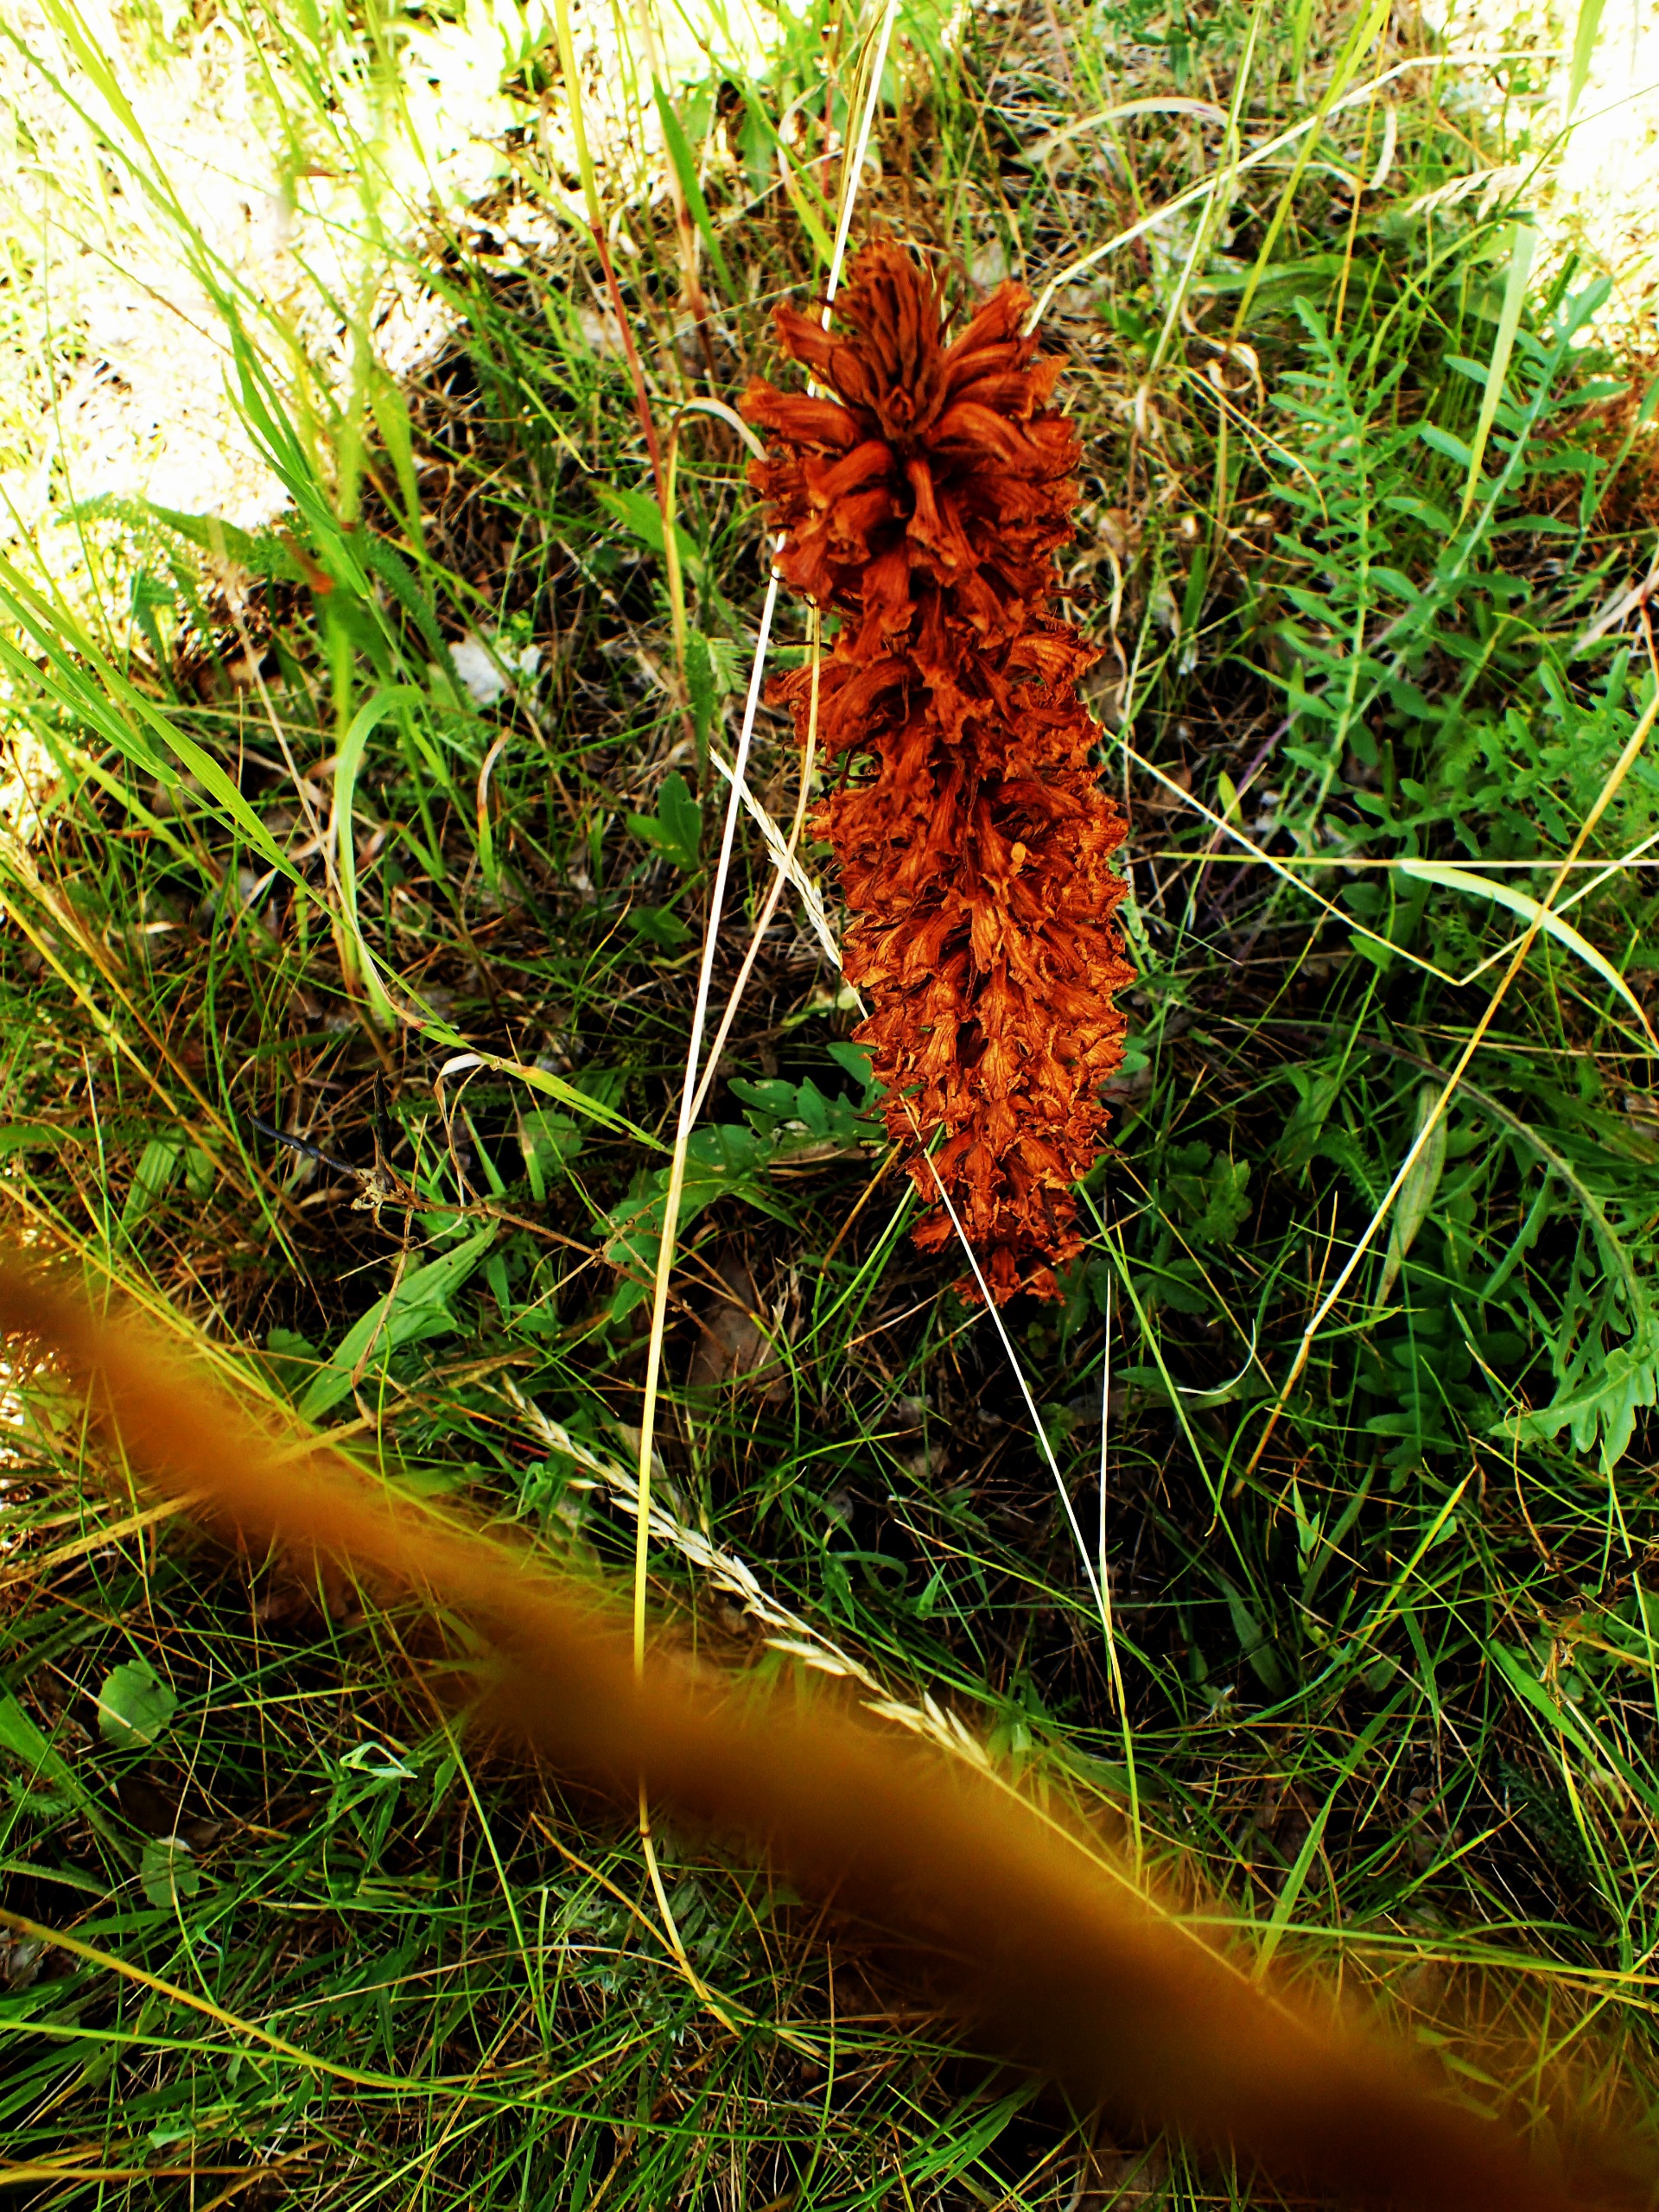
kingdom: Plantae
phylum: Tracheophyta
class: Magnoliopsida
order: Lamiales
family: Orobanchaceae
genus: Orobanche
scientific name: Orobanche elatior
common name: Stor gyvelkvæler
